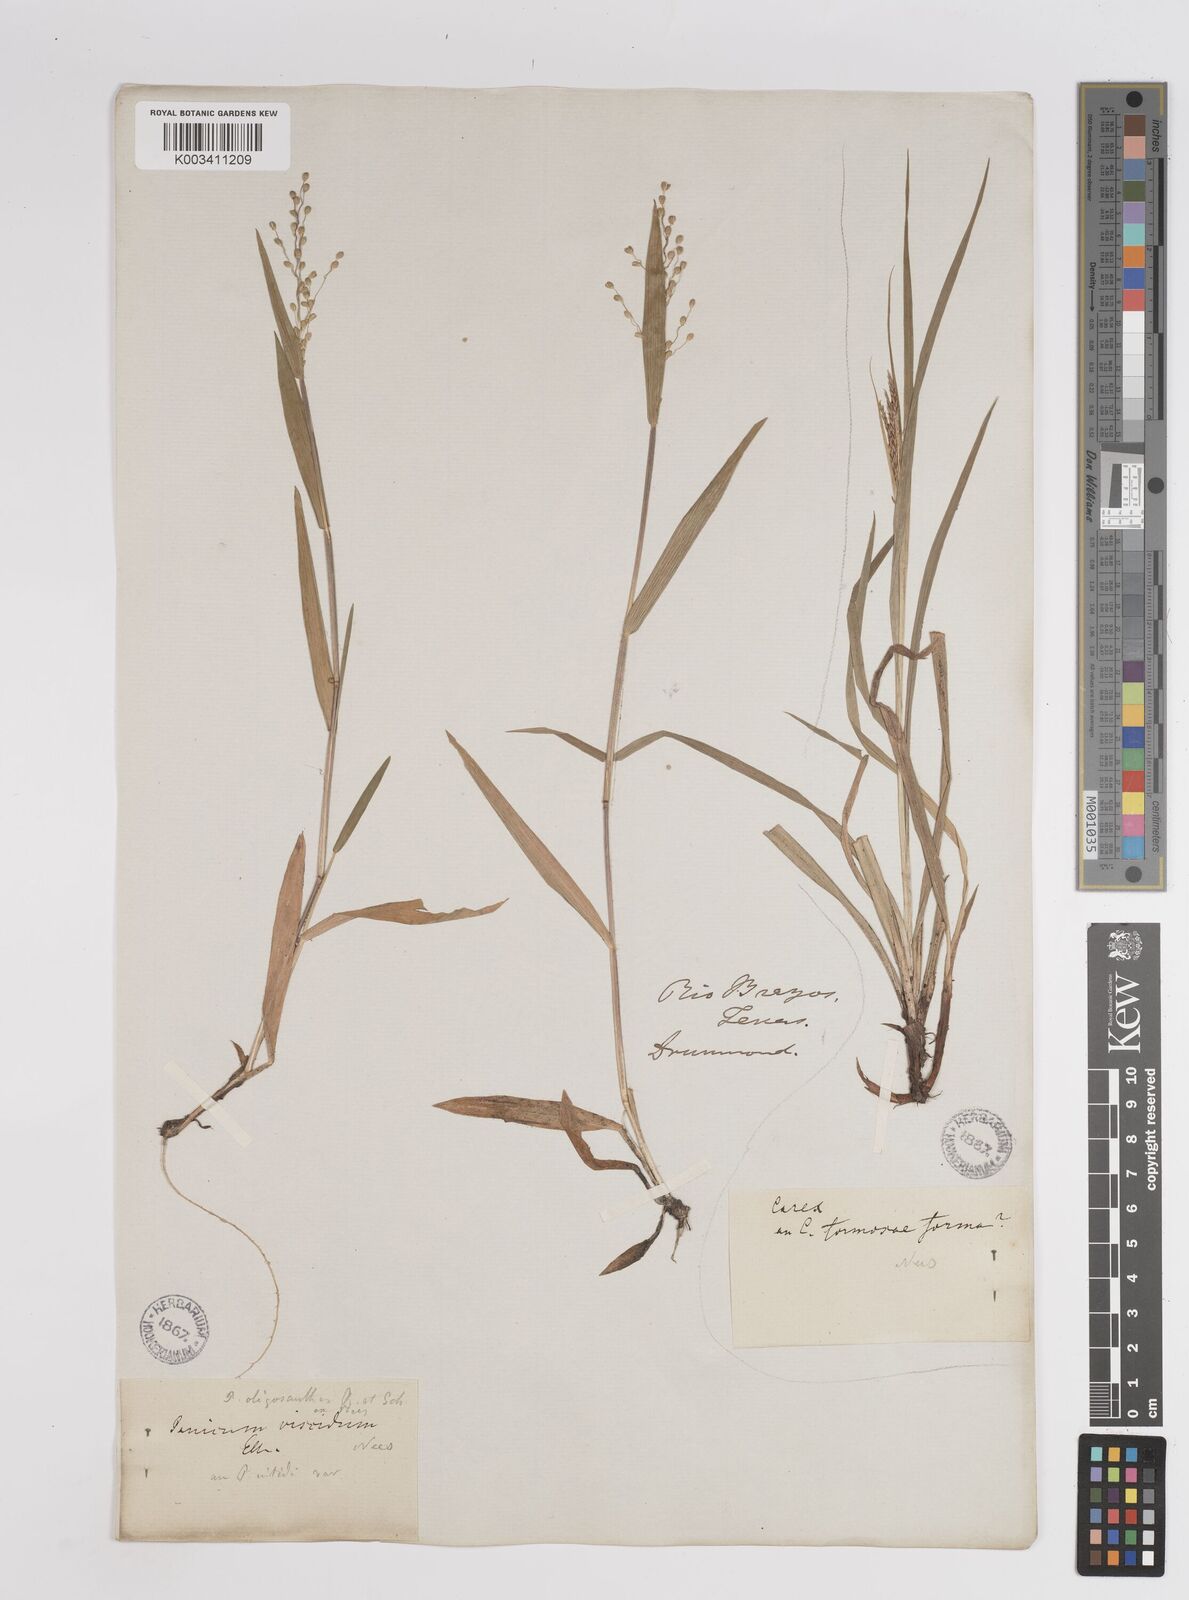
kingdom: Plantae
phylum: Tracheophyta
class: Liliopsida
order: Poales
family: Poaceae
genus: Dichanthelium
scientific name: Dichanthelium oligosanthes
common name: Few-anther obscuregrass
